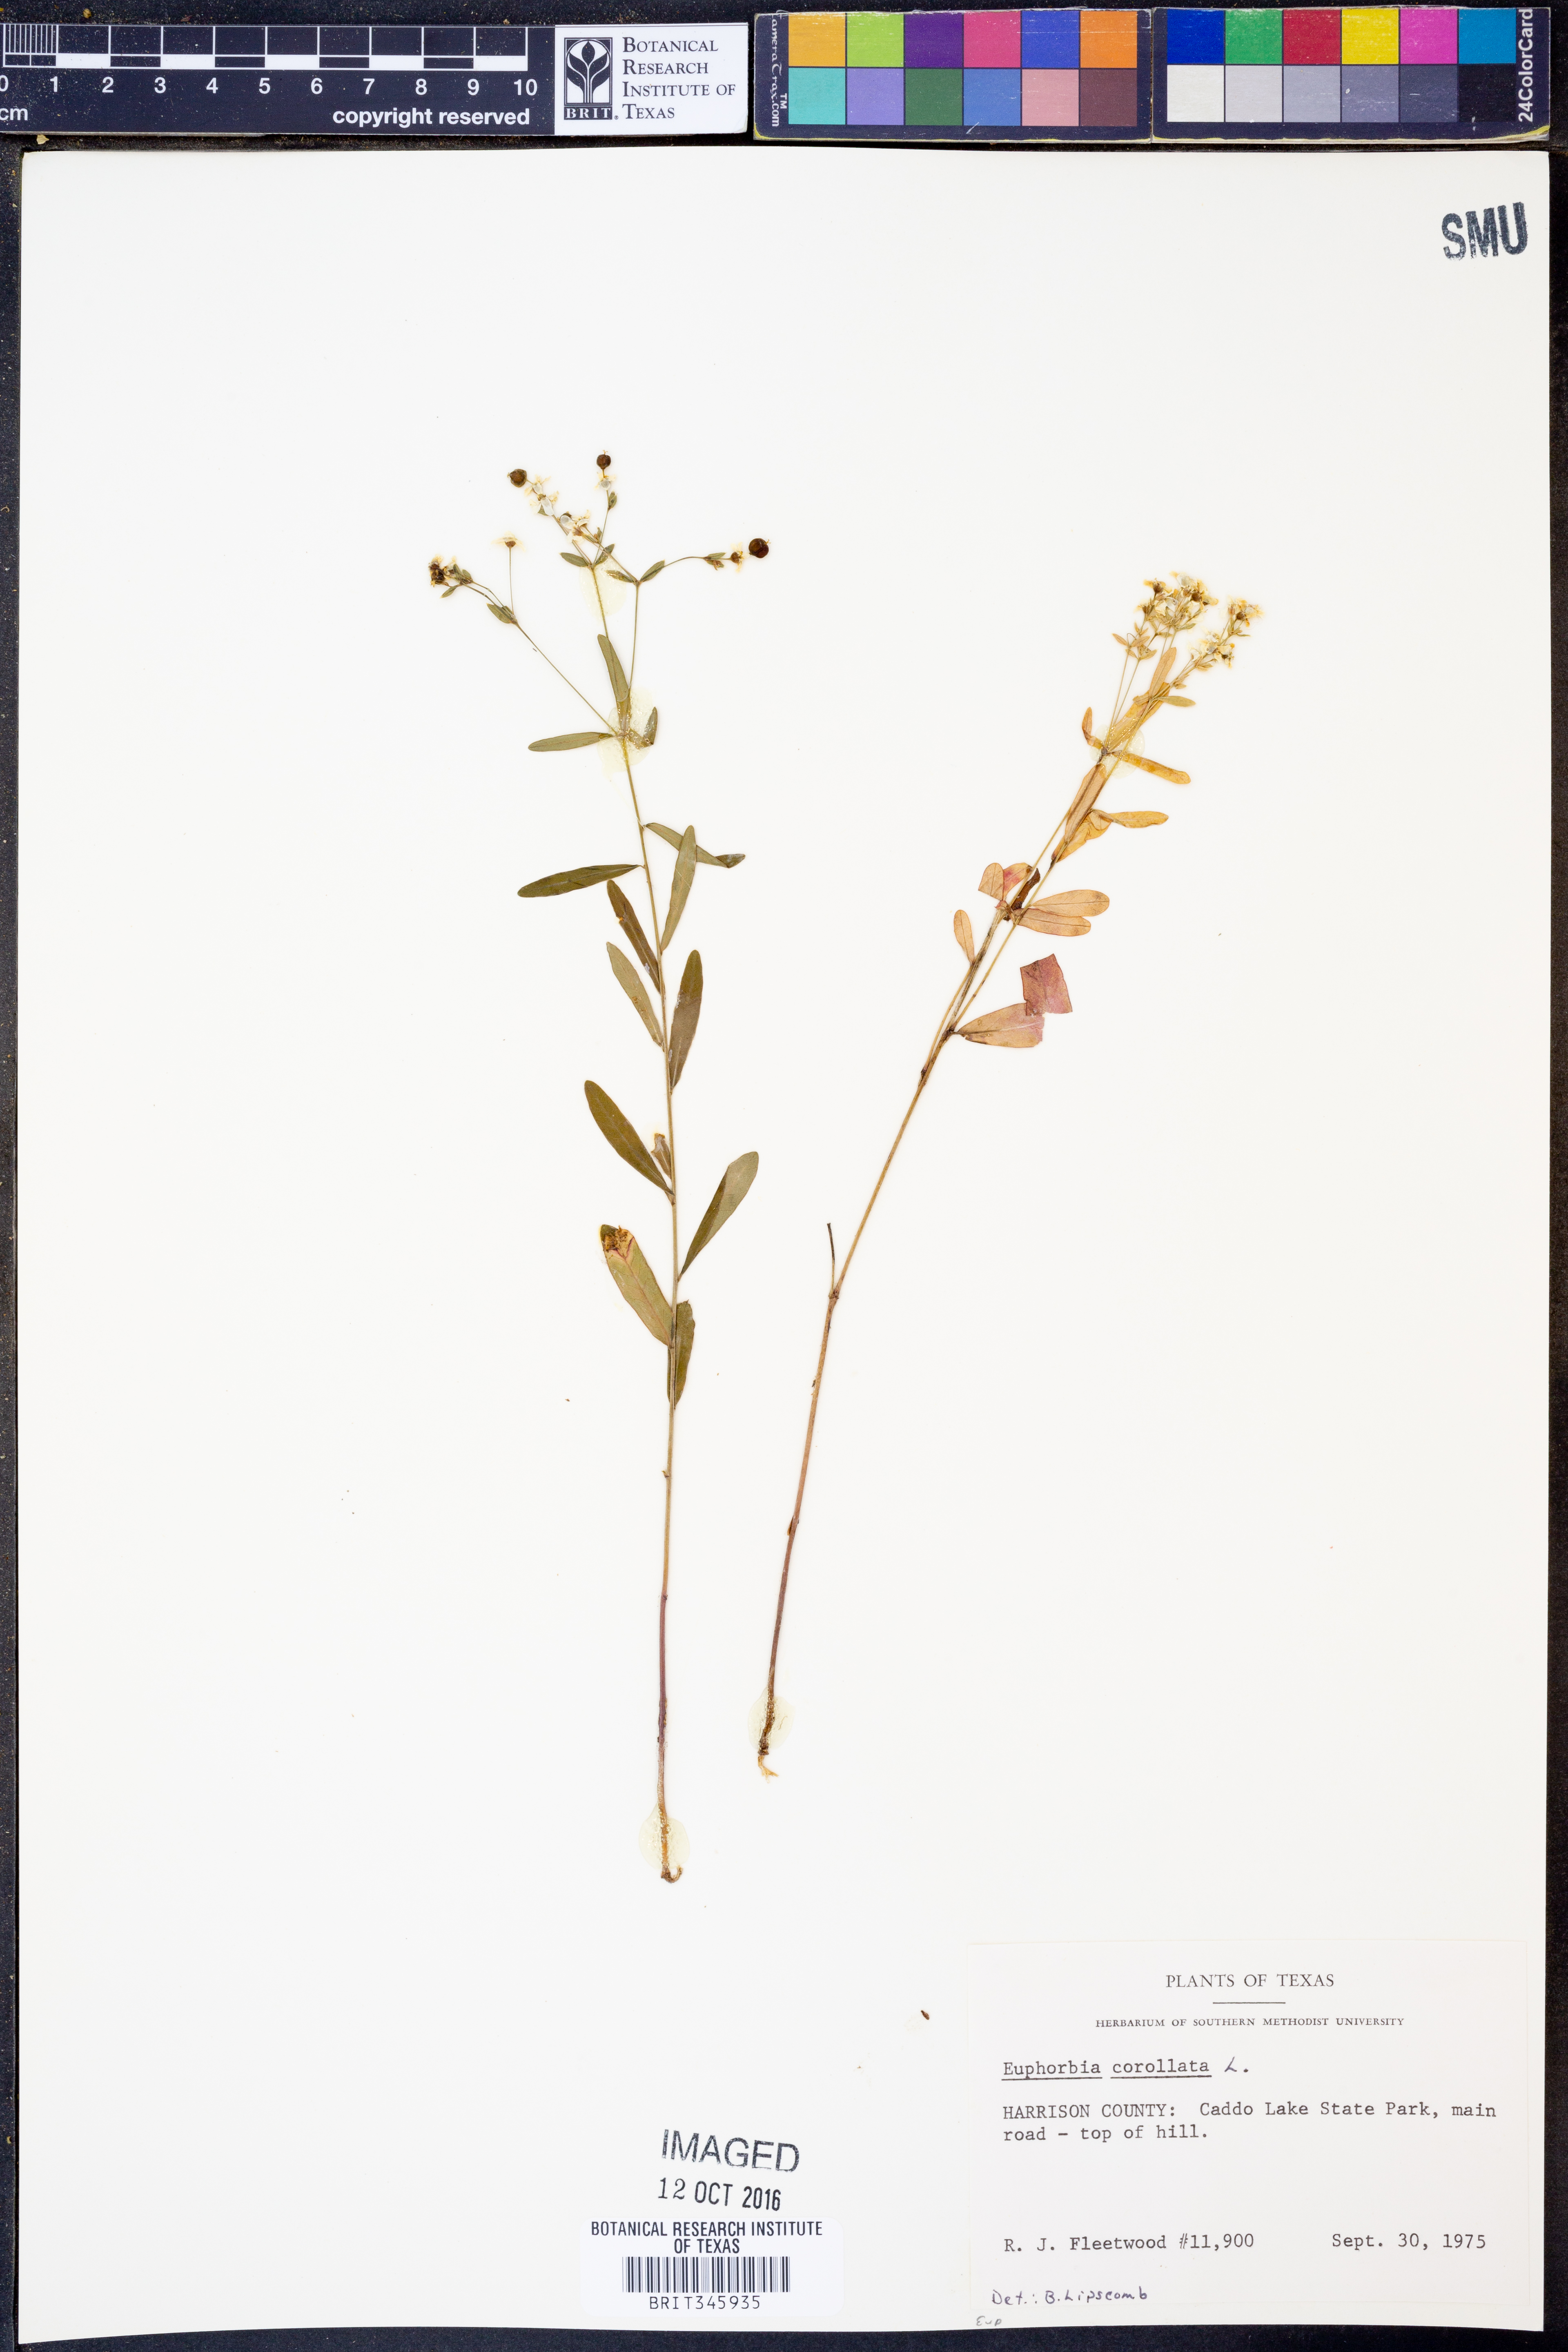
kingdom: Plantae
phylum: Tracheophyta
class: Magnoliopsida
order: Malpighiales
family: Euphorbiaceae
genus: Euphorbia
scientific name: Euphorbia corollata
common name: Flowering spurge
